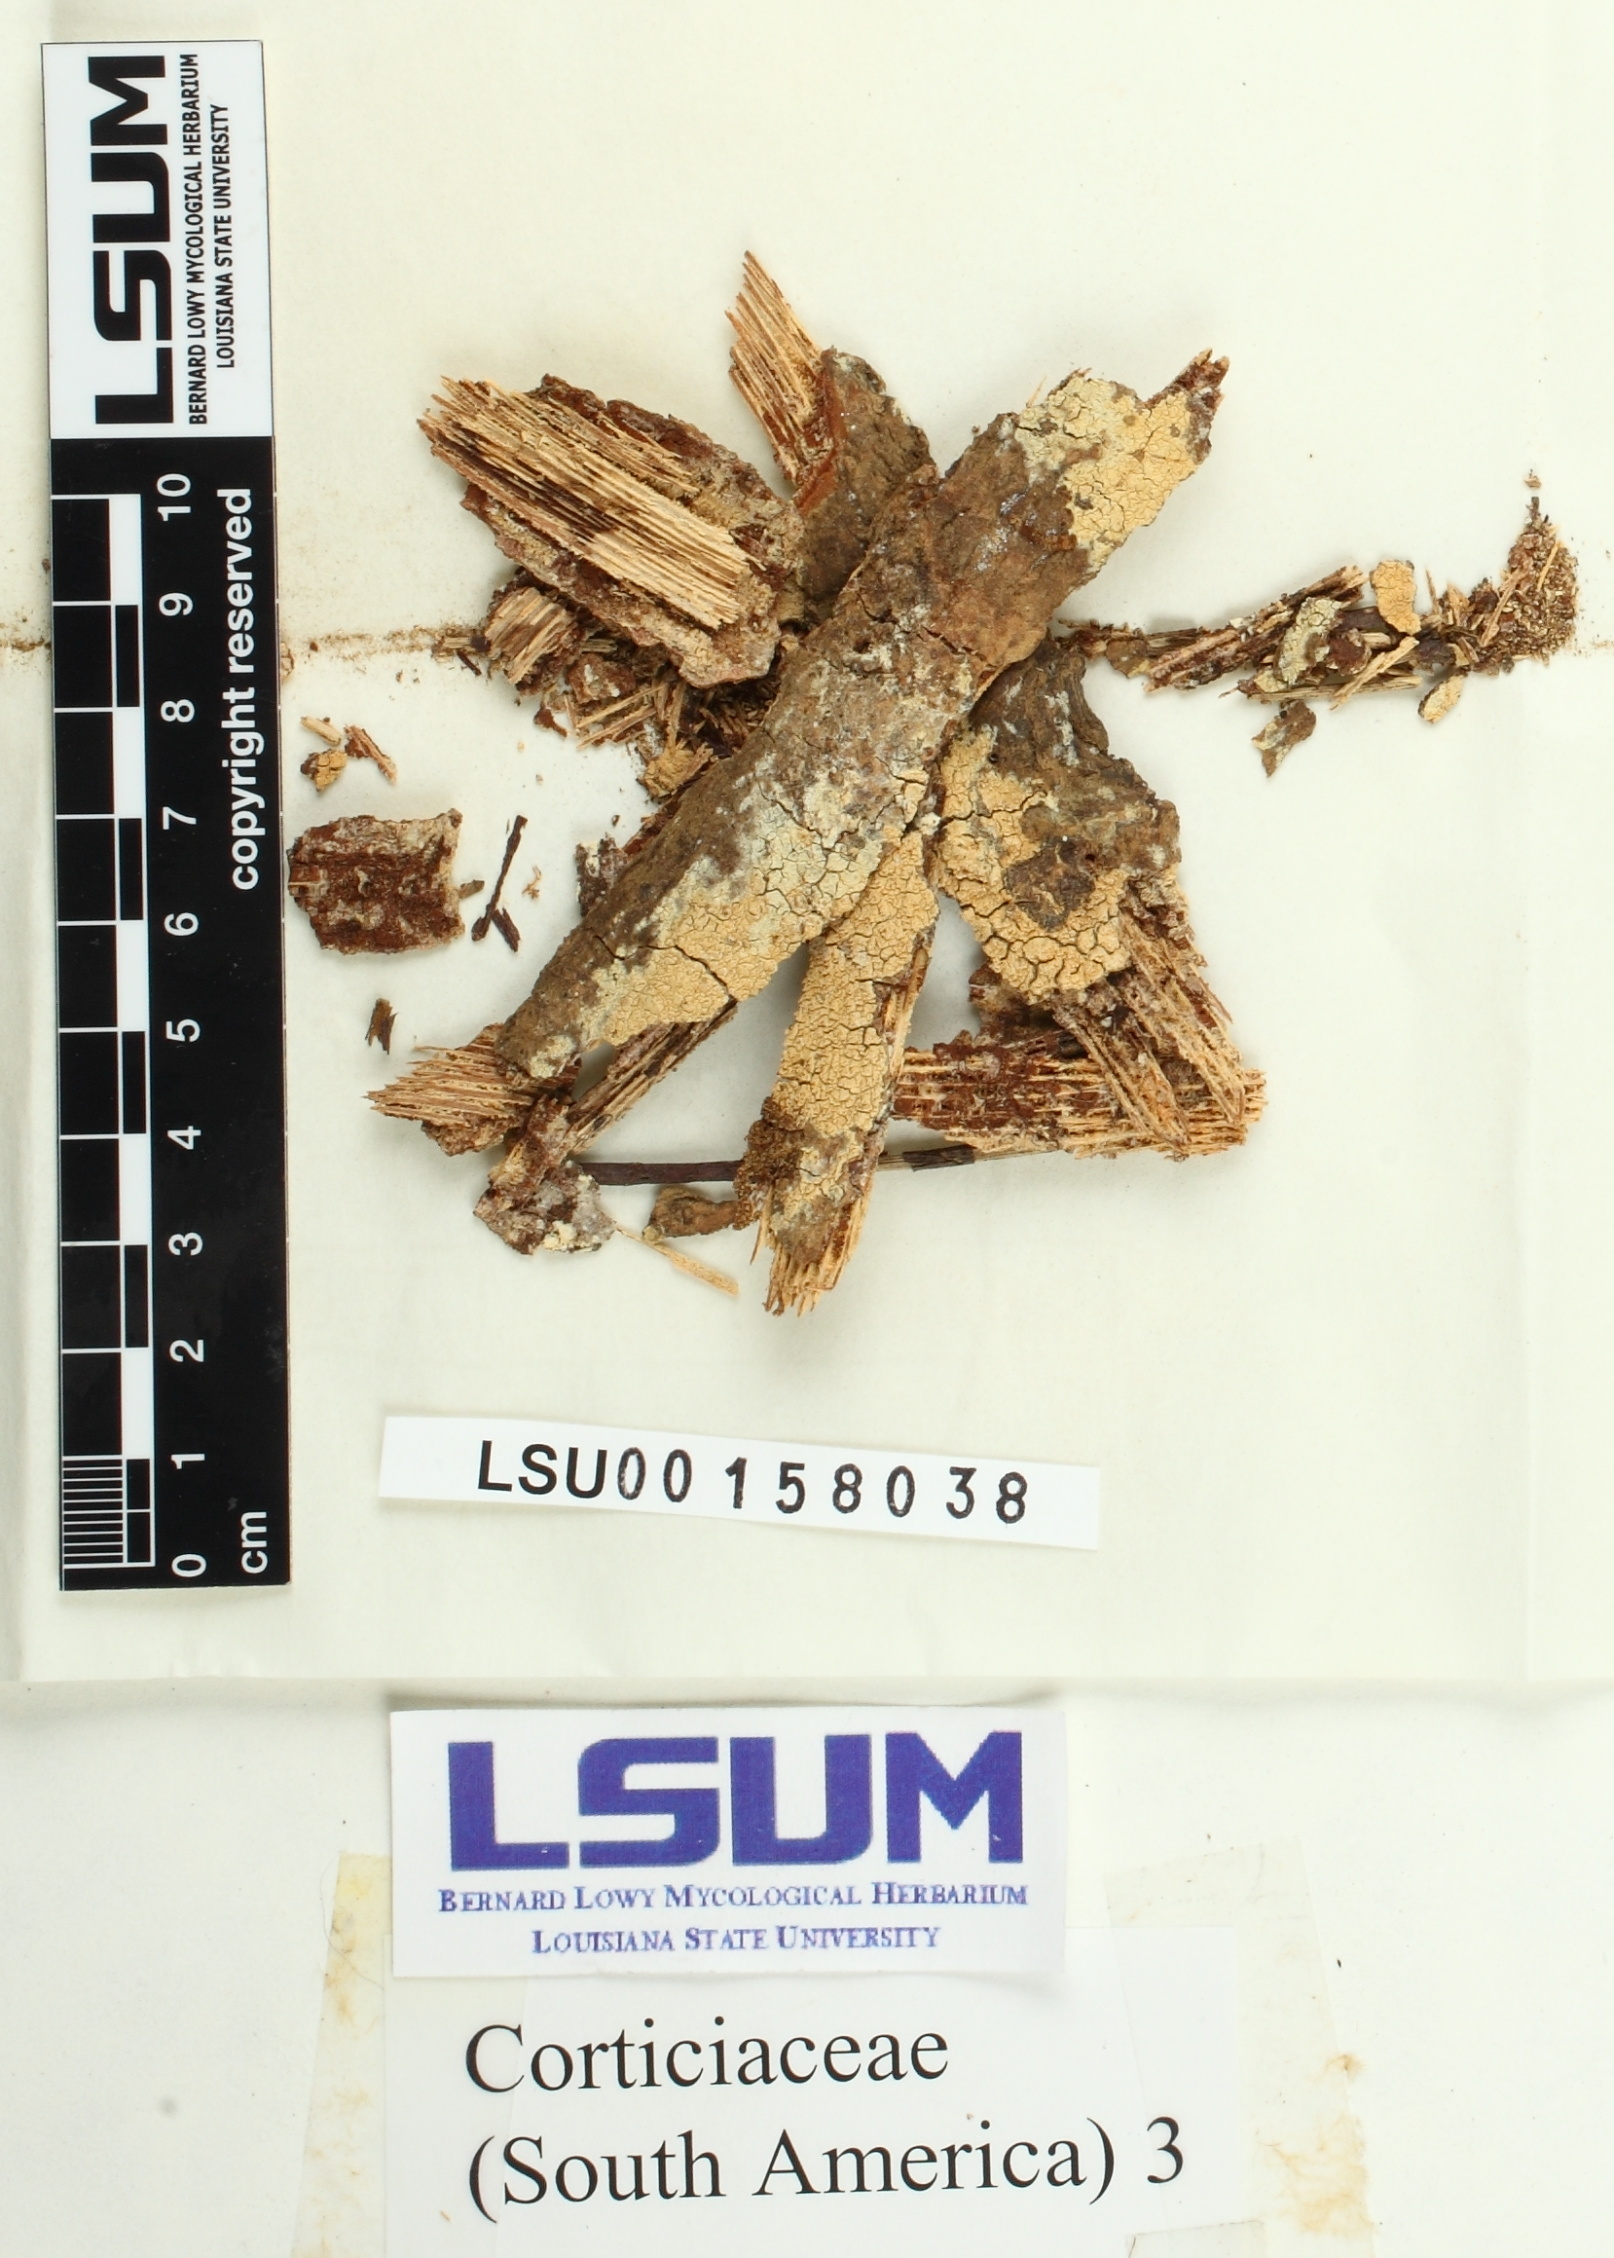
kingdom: Fungi
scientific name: Fungi
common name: Fungi
